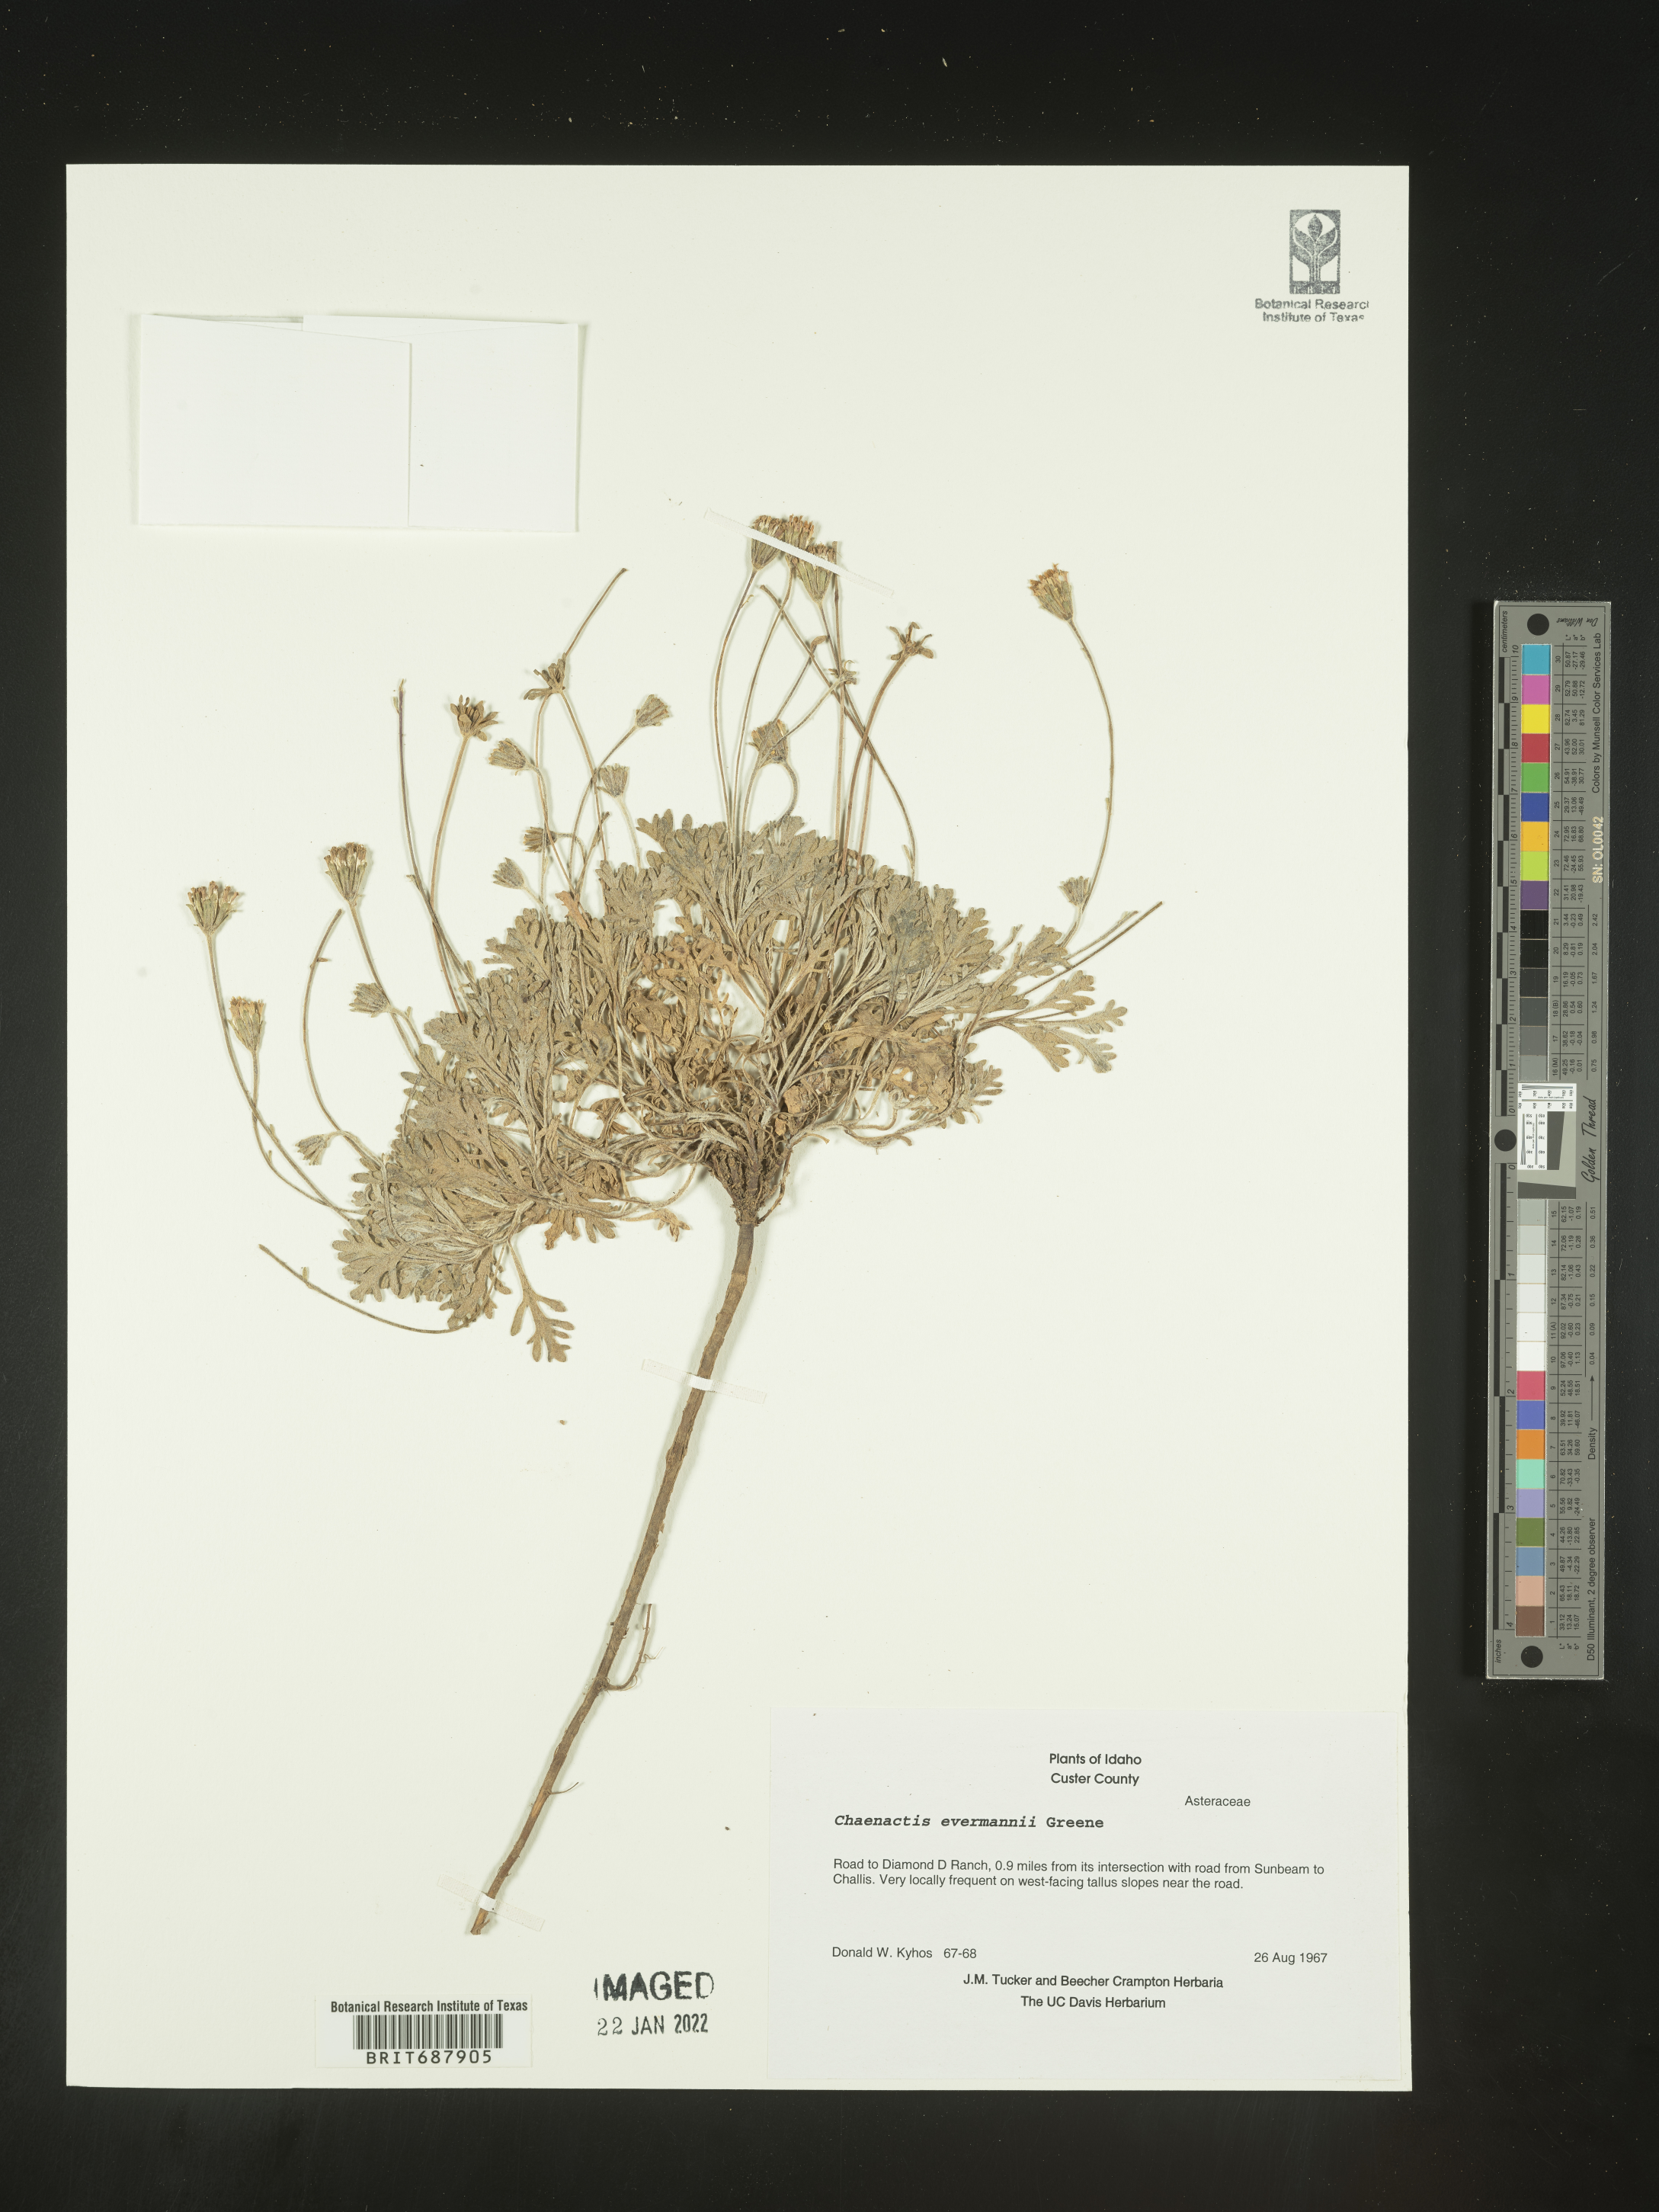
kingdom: Plantae
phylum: Tracheophyta
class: Magnoliopsida
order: Asterales
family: Asteraceae
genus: Chaenactis
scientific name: Chaenactis evermannii
